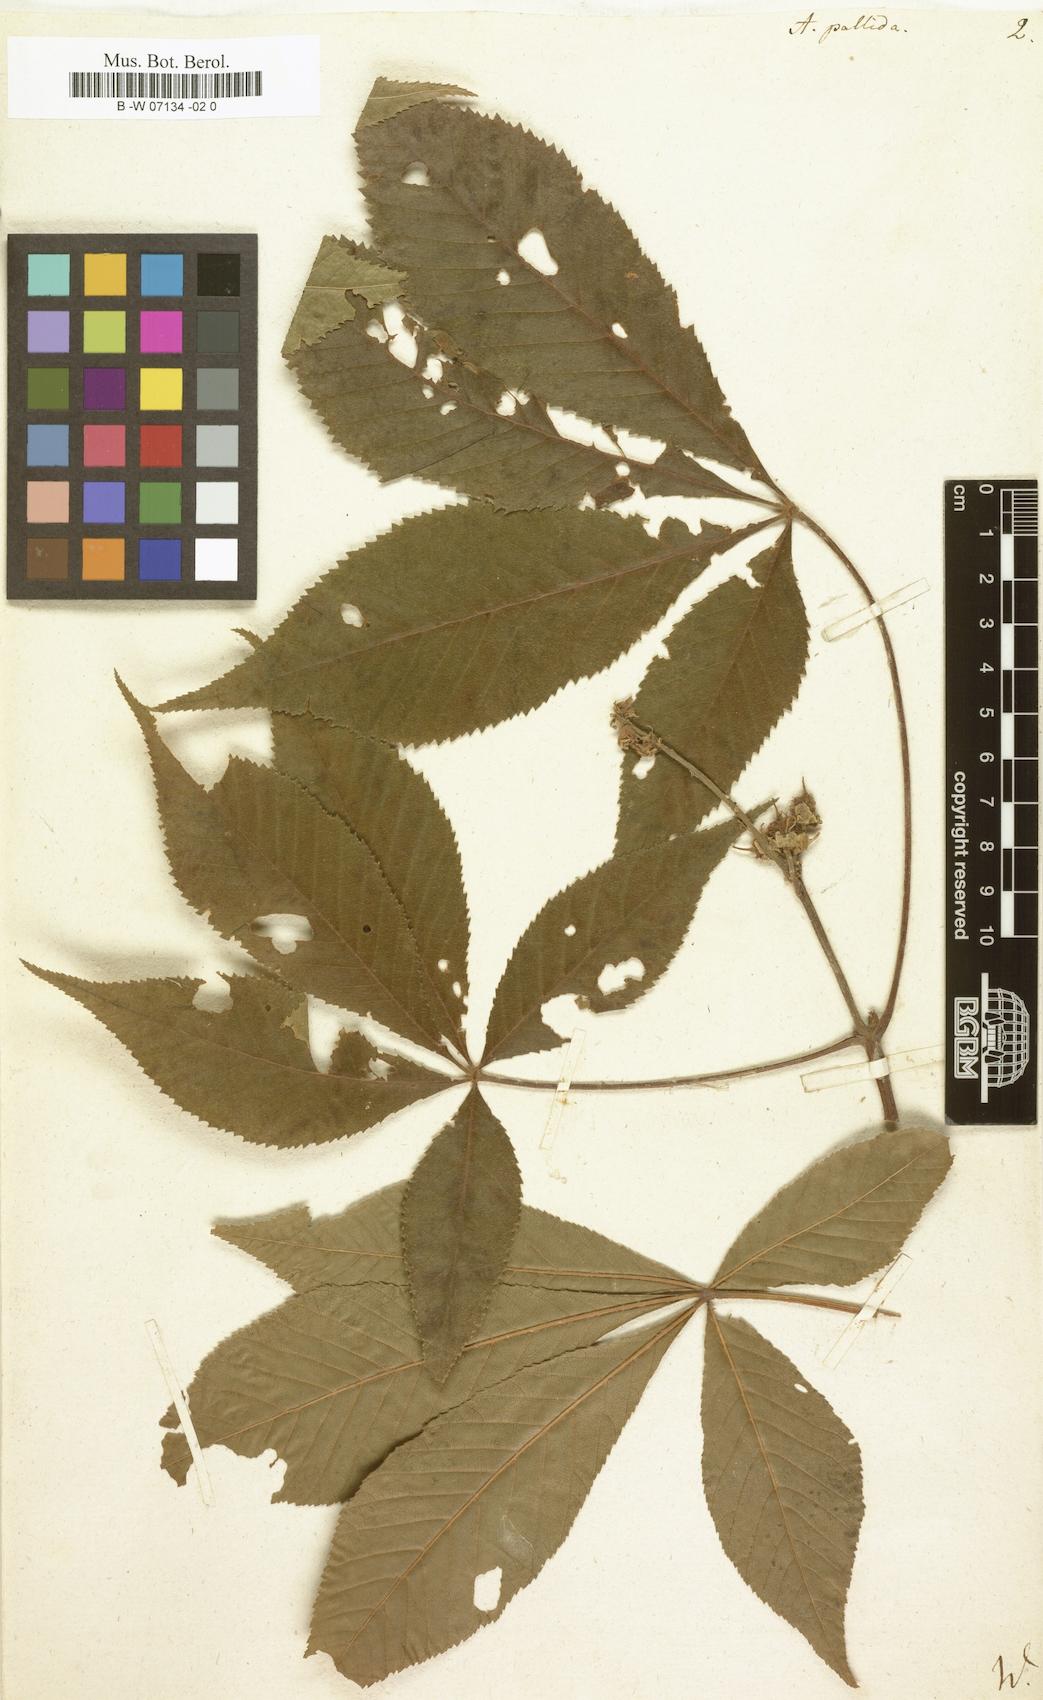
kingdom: Plantae
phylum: Tracheophyta
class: Magnoliopsida
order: Sapindales
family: Sapindaceae
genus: Aesculus
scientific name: Aesculus glabra
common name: Ohio buckeye
